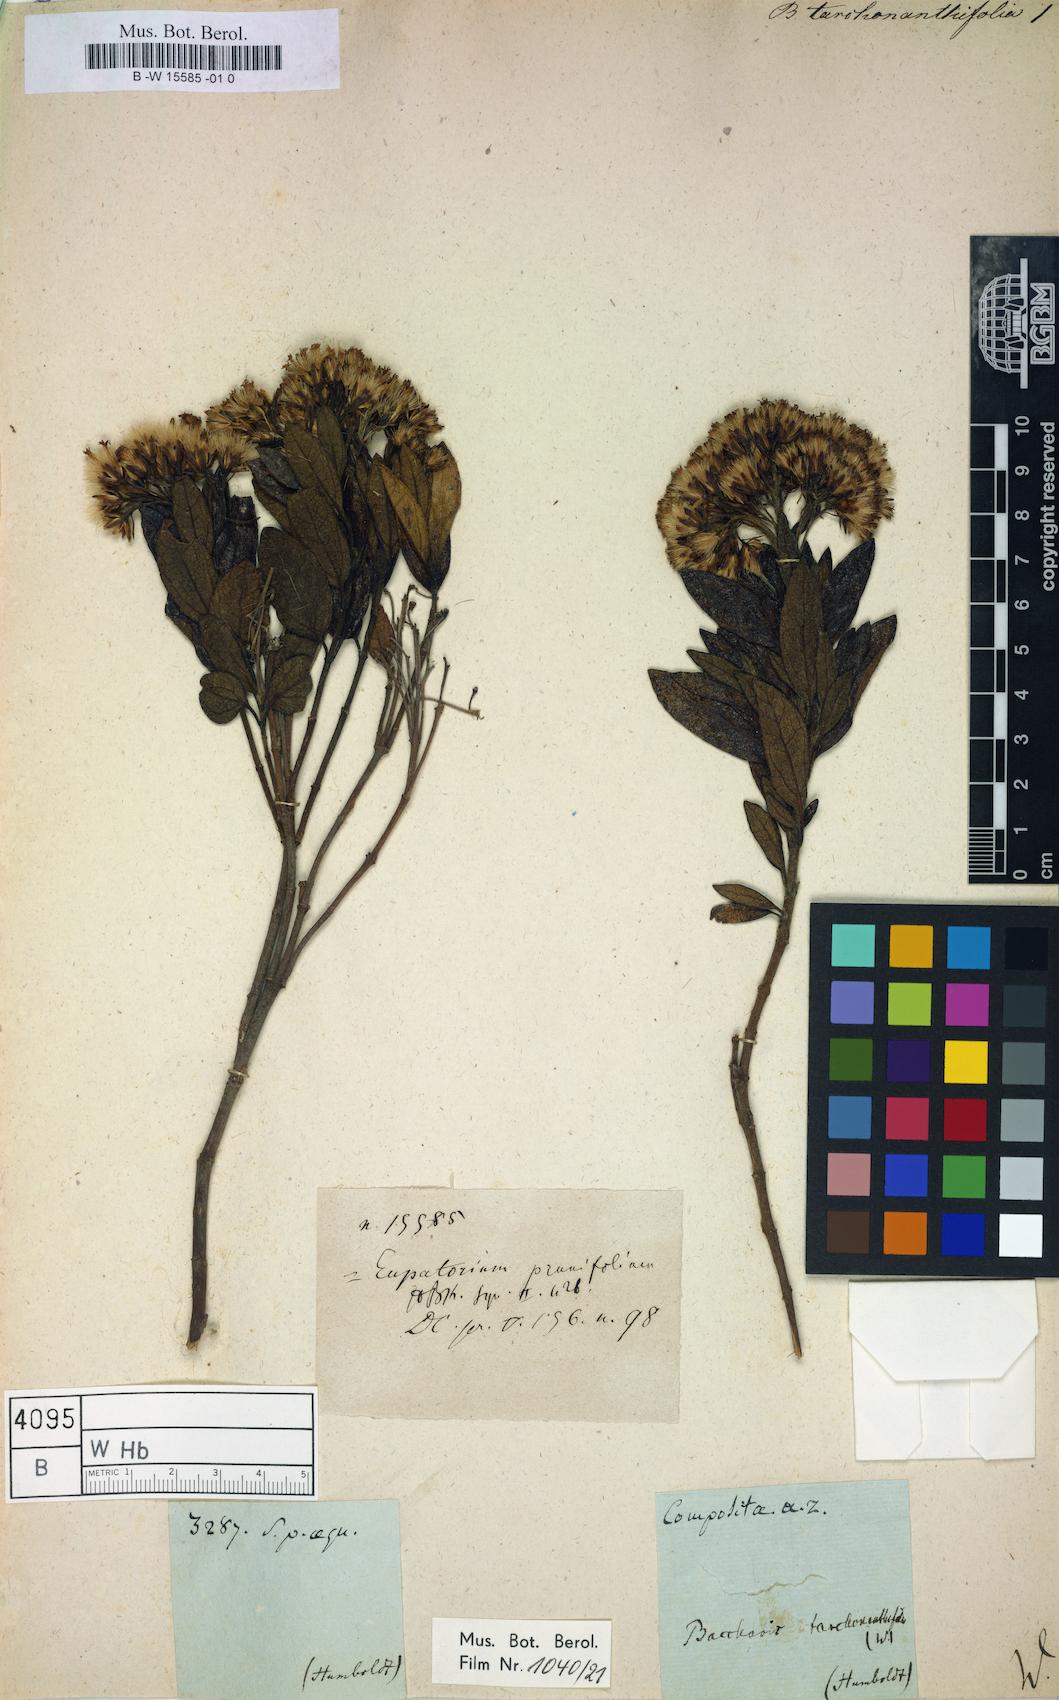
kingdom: Plantae
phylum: Tracheophyta
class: Magnoliopsida
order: Asterales
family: Asteraceae
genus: Baccharis
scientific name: Baccharis
